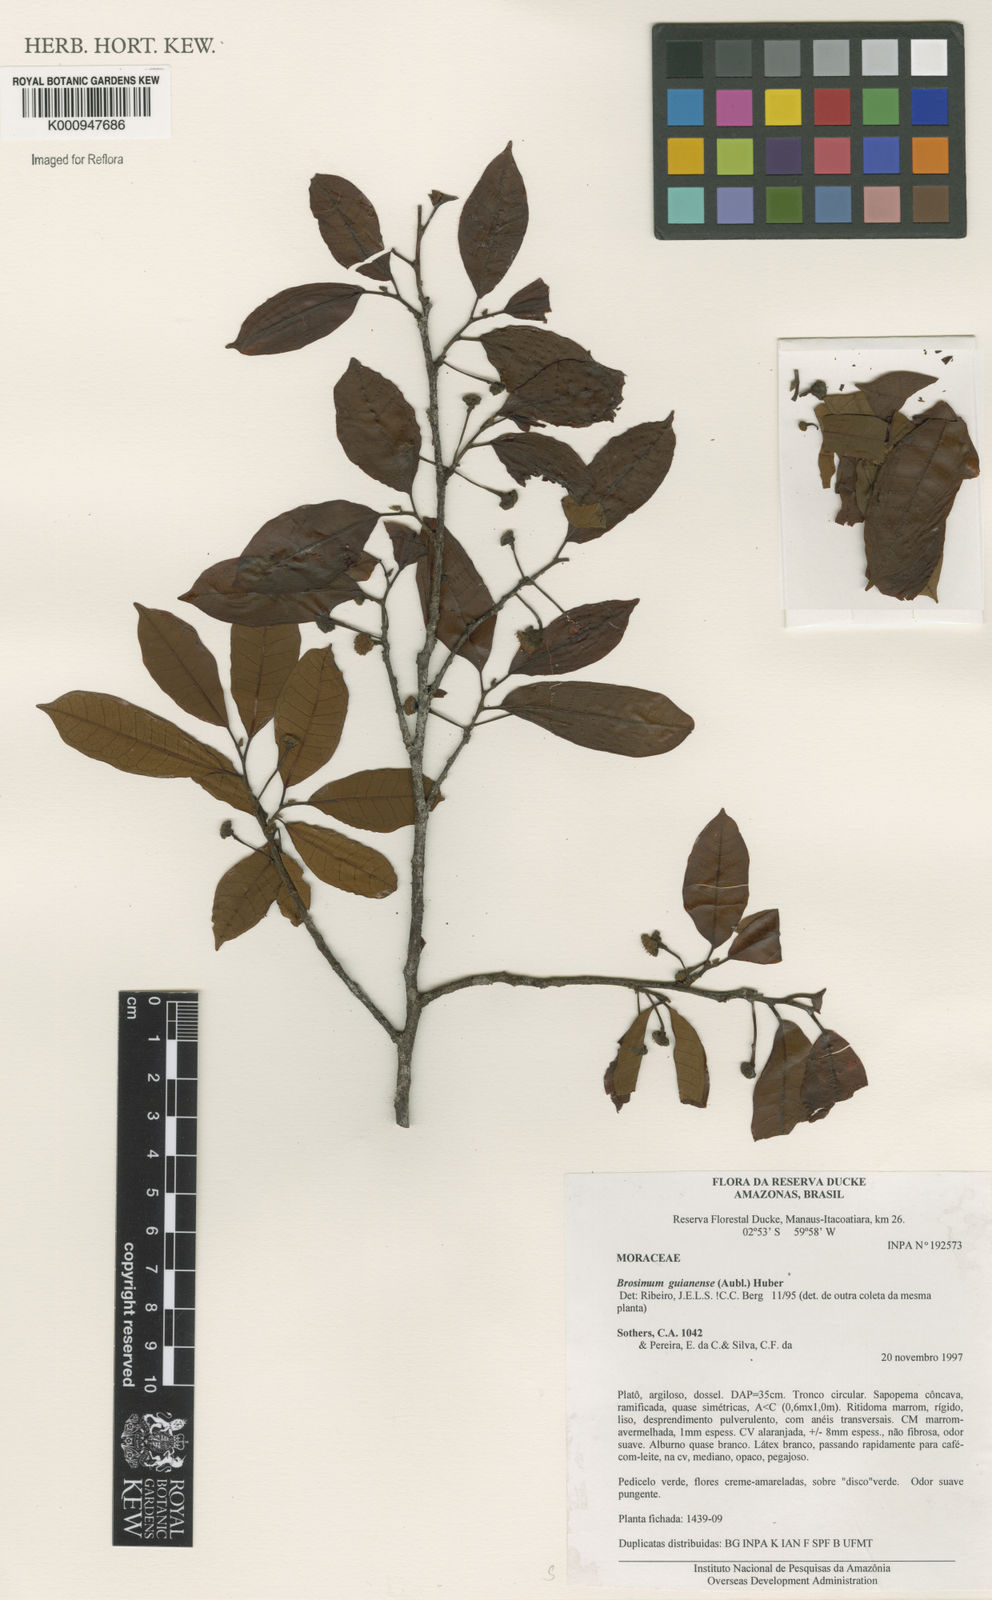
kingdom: Plantae
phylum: Tracheophyta
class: Magnoliopsida
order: Rosales
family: Moraceae
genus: Brosimum
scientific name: Brosimum
